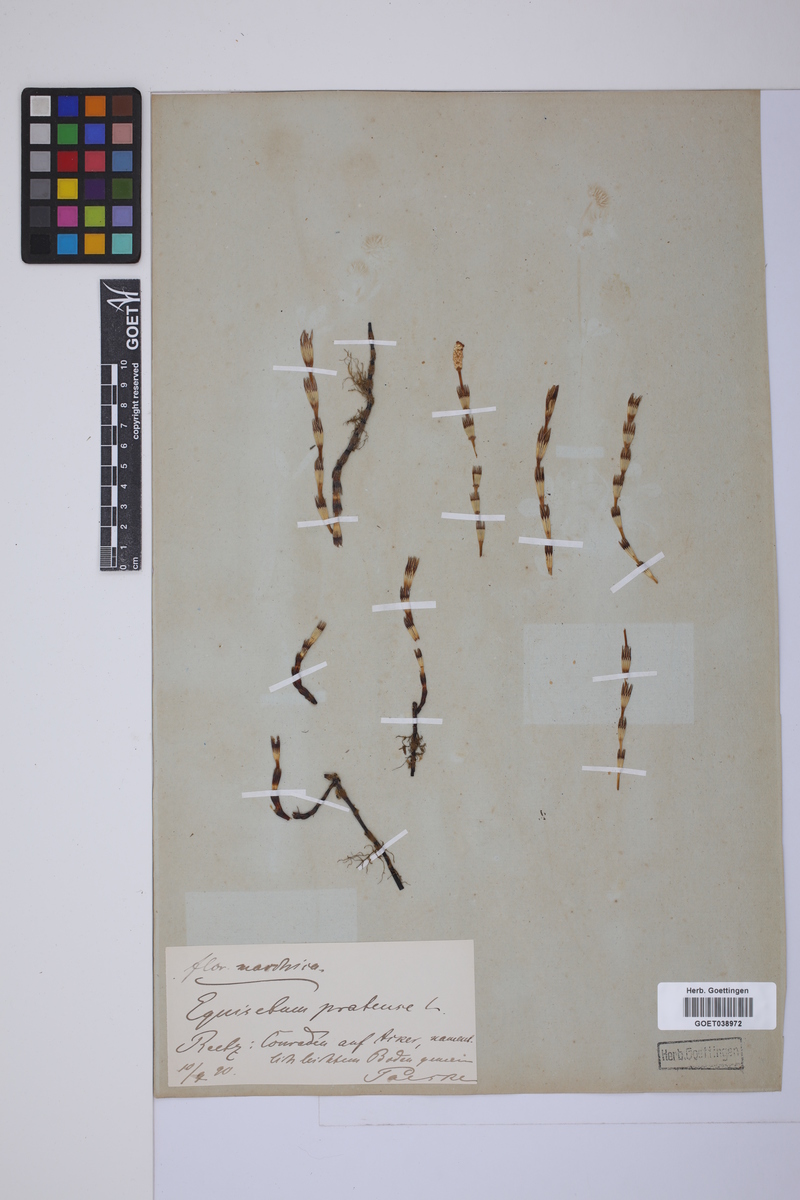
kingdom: Plantae
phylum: Tracheophyta
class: Polypodiopsida
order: Equisetales
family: Equisetaceae
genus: Equisetum
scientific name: Equisetum pratense
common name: Meadow horsetail
